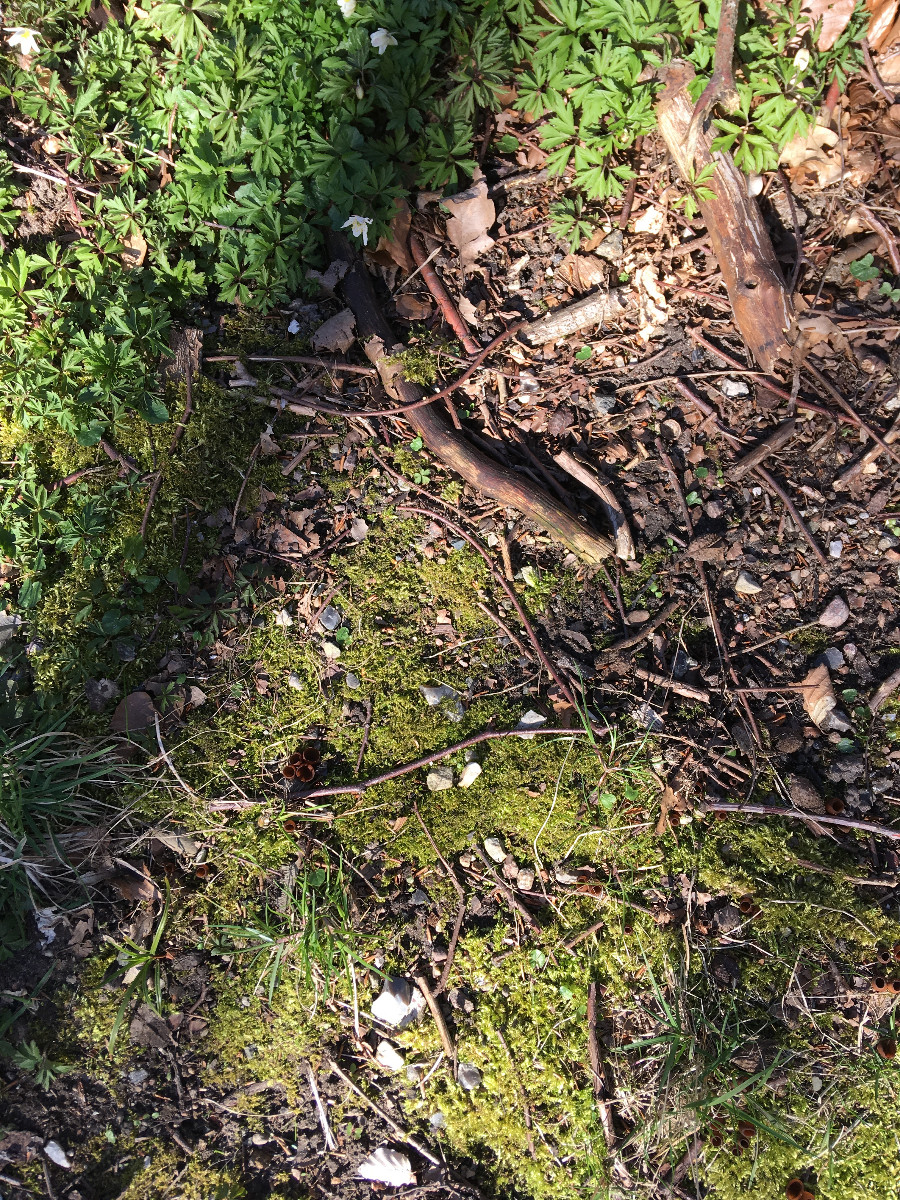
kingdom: Fungi
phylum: Ascomycota
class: Leotiomycetes
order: Helotiales
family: Sclerotiniaceae
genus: Dumontinia
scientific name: Dumontinia tuberosa
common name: anemone-knoldskive
